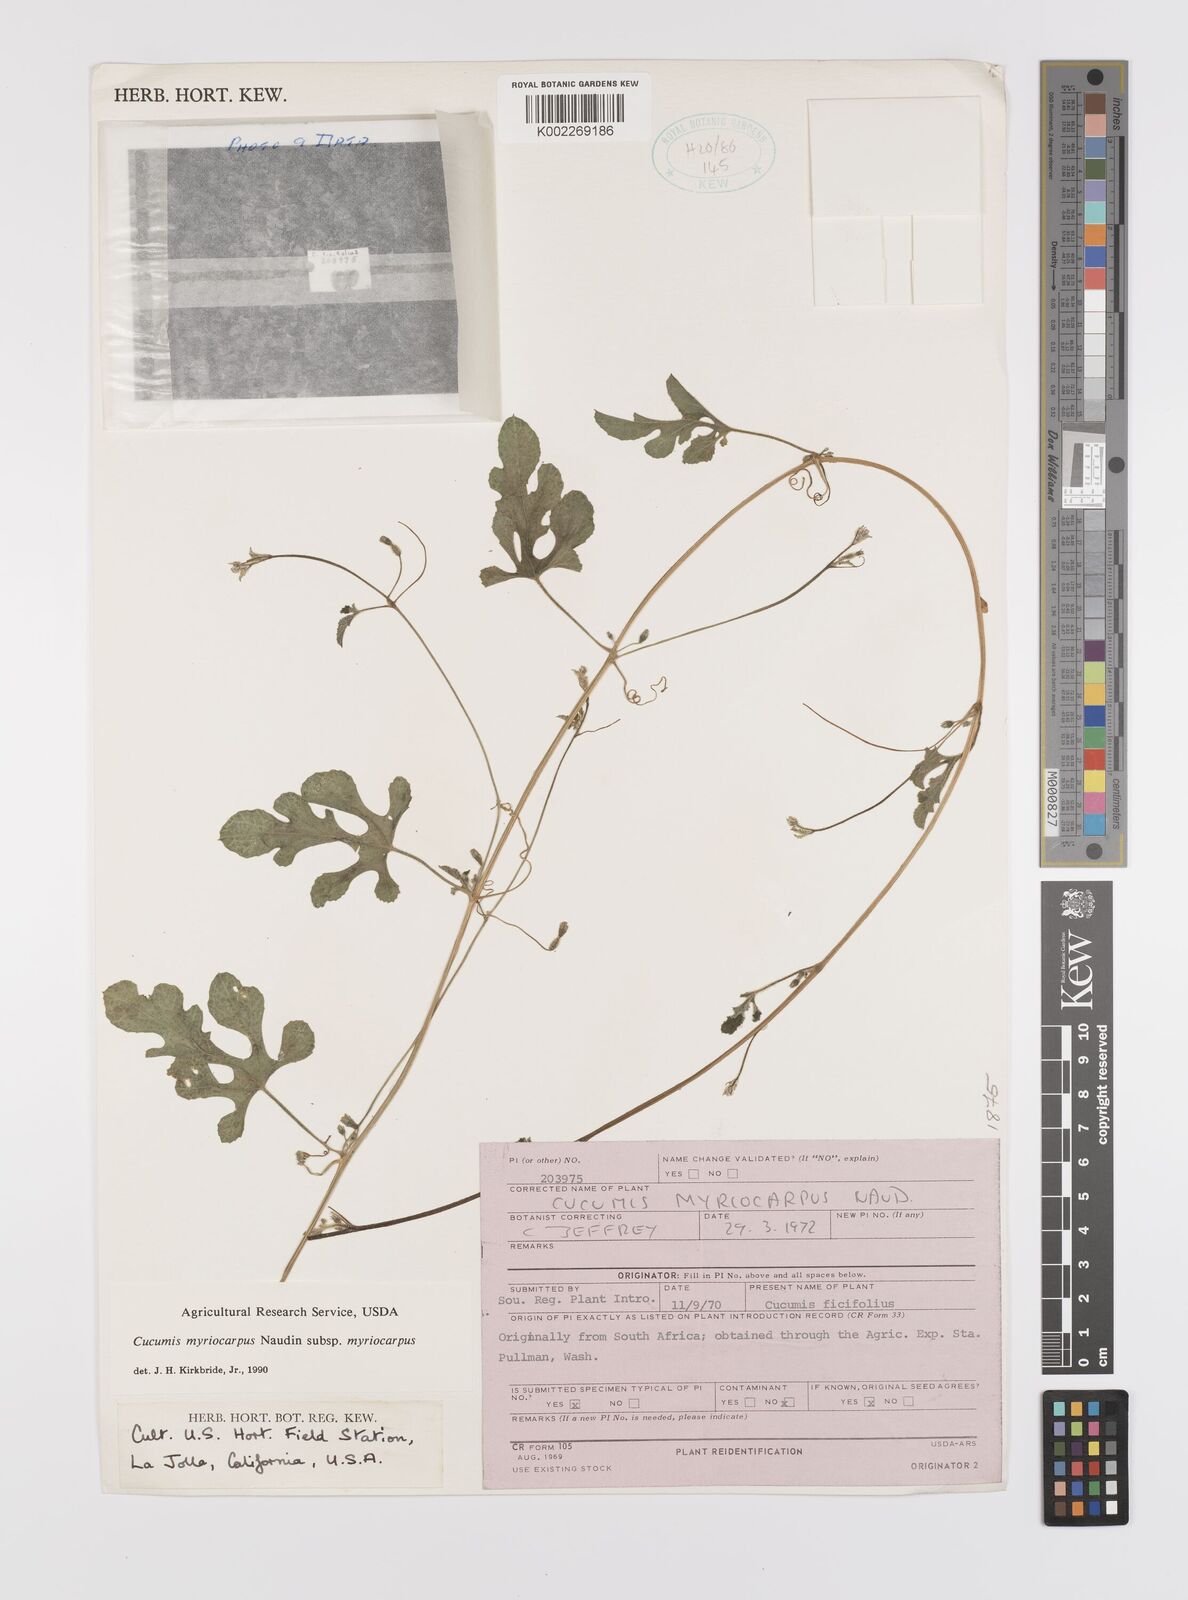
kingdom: Plantae
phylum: Tracheophyta
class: Magnoliopsida
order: Cucurbitales
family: Cucurbitaceae
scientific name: Cucurbitaceae
